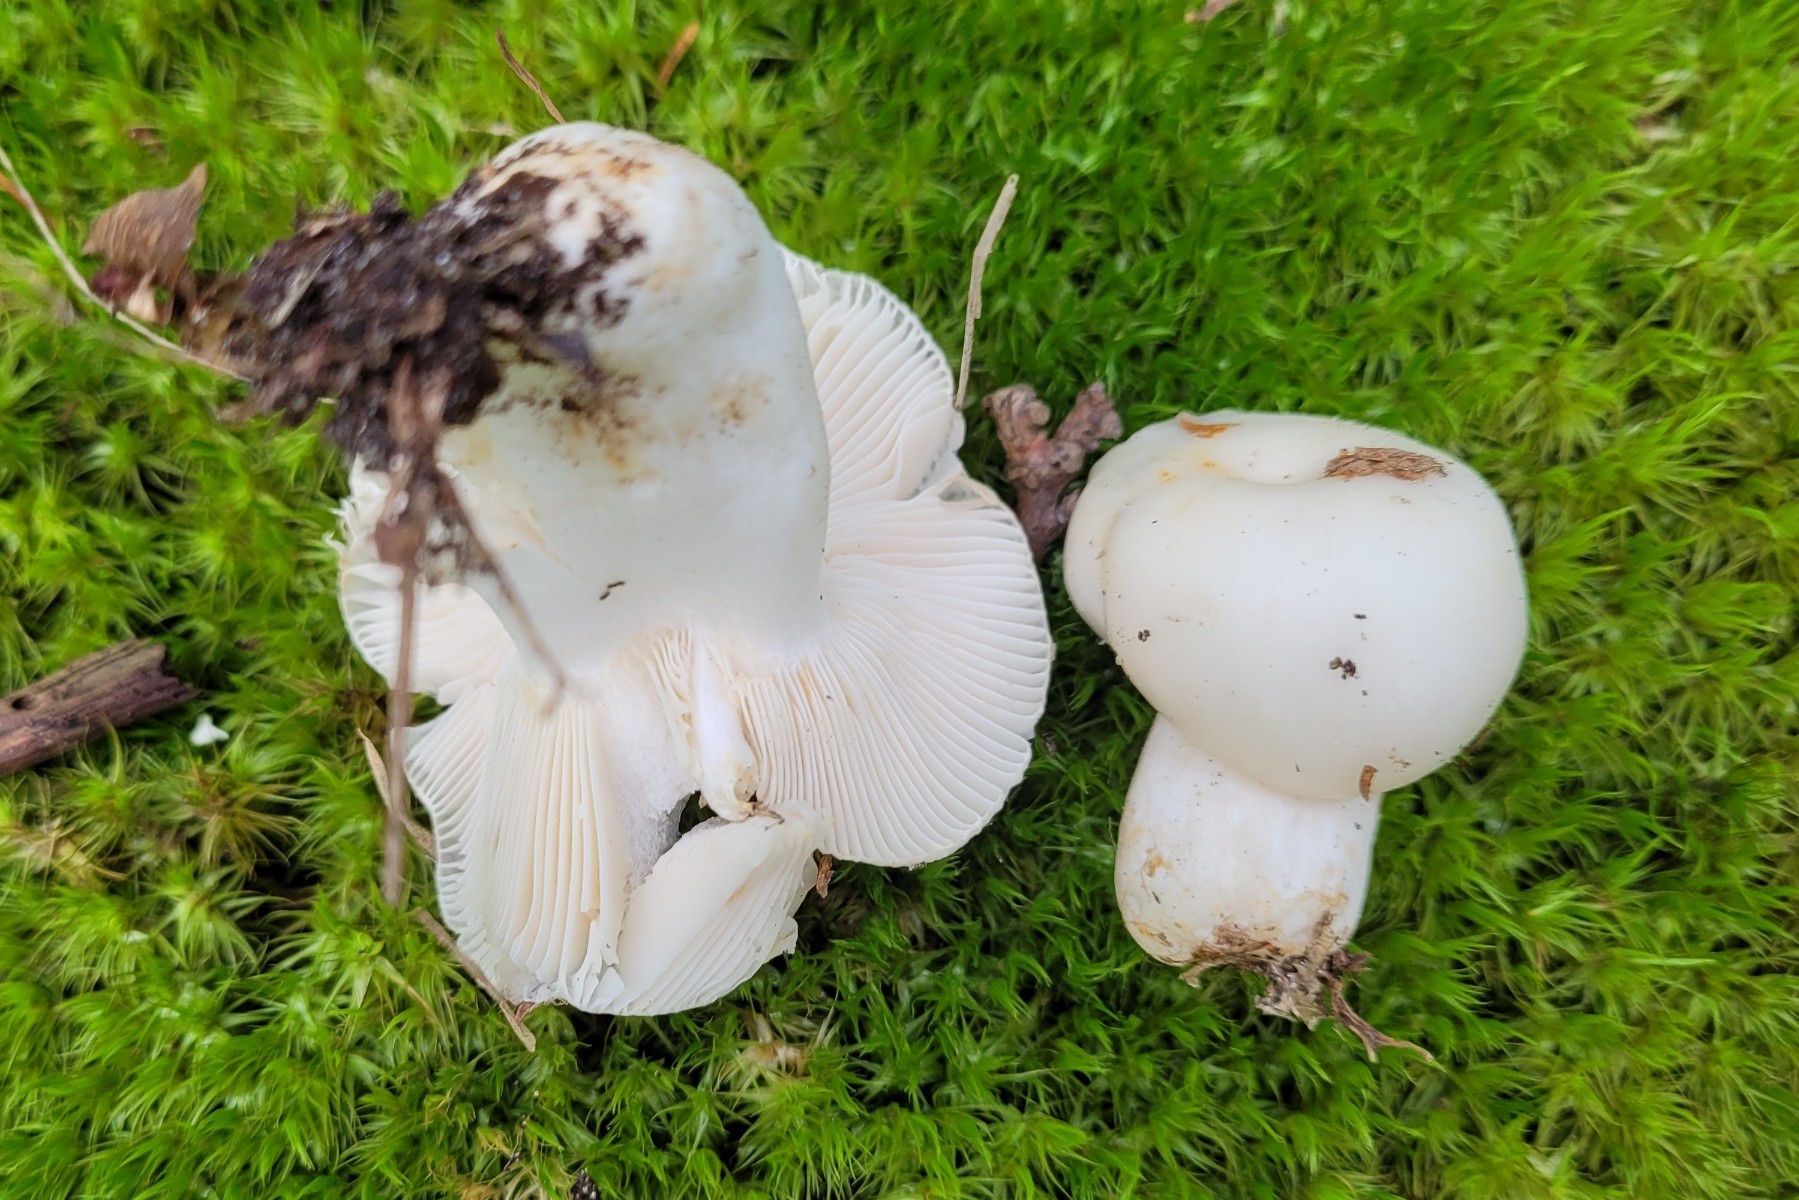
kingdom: Fungi
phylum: Basidiomycota
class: Agaricomycetes
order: Russulales
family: Russulaceae
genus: Russula
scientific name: Russula amoenolens
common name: skarp kam-skørhat
